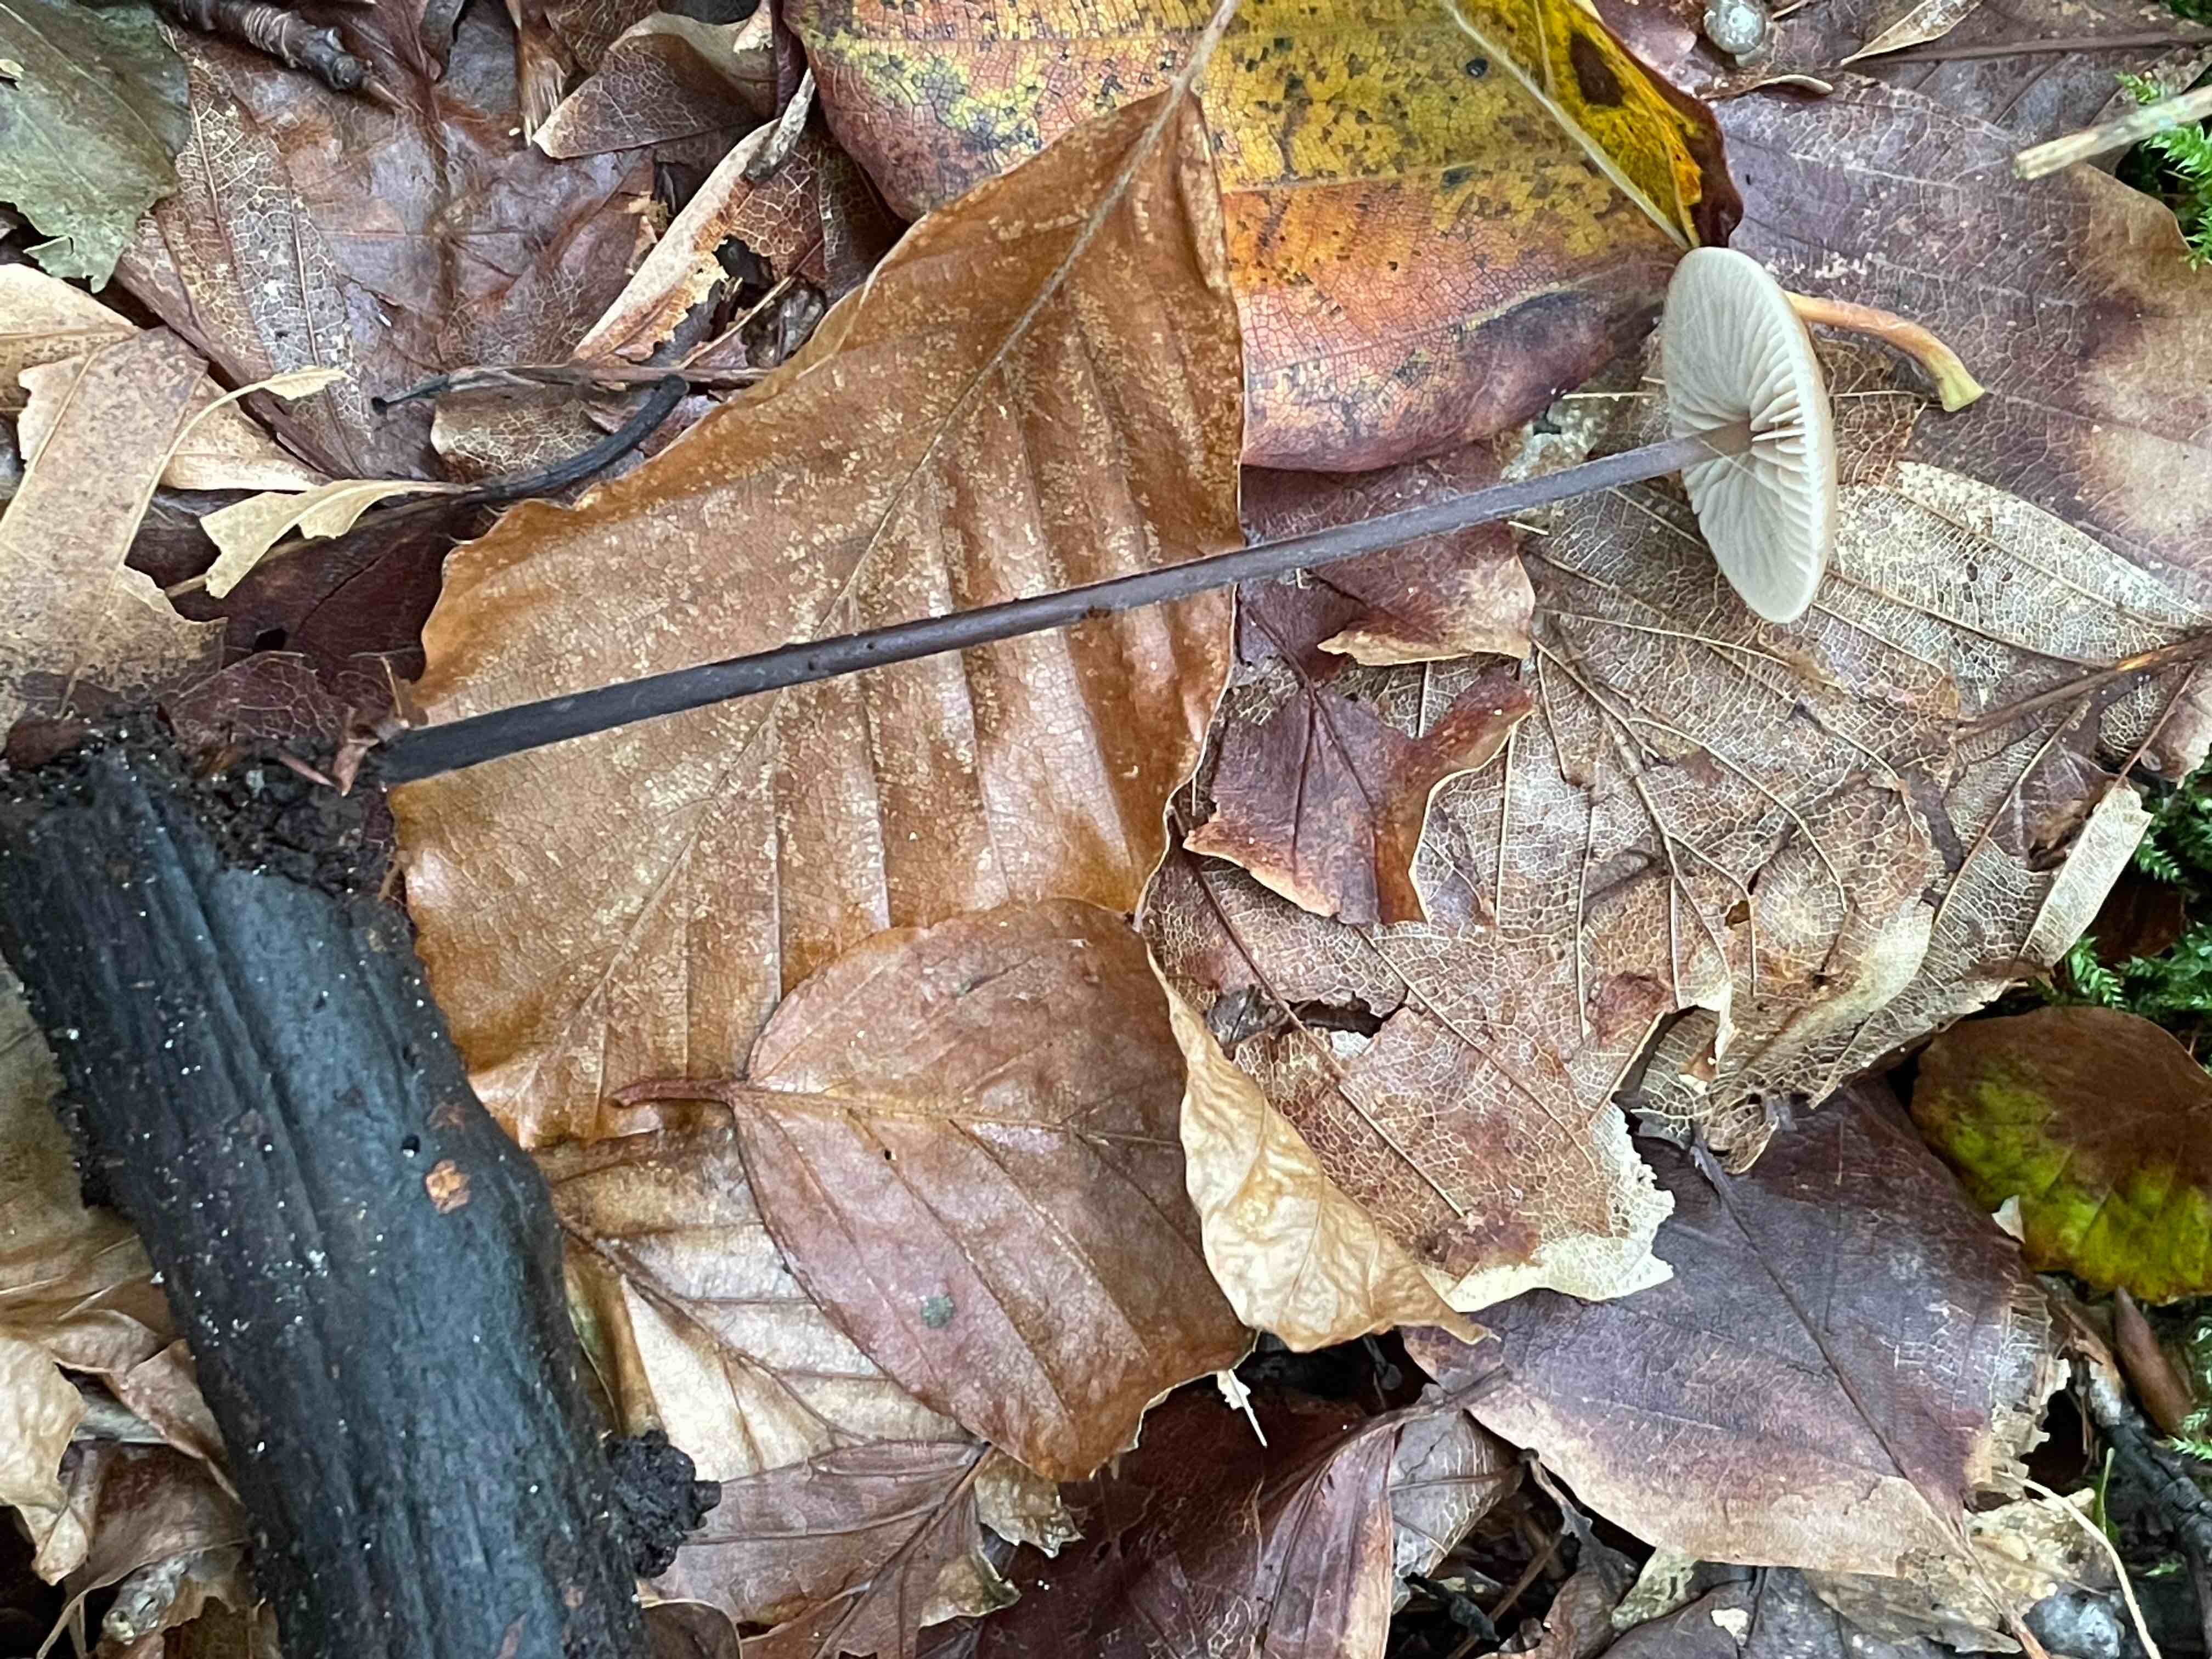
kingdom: Fungi
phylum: Basidiomycota
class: Agaricomycetes
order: Agaricales
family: Omphalotaceae
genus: Mycetinis
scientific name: Mycetinis alliaceus
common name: stor løghat
